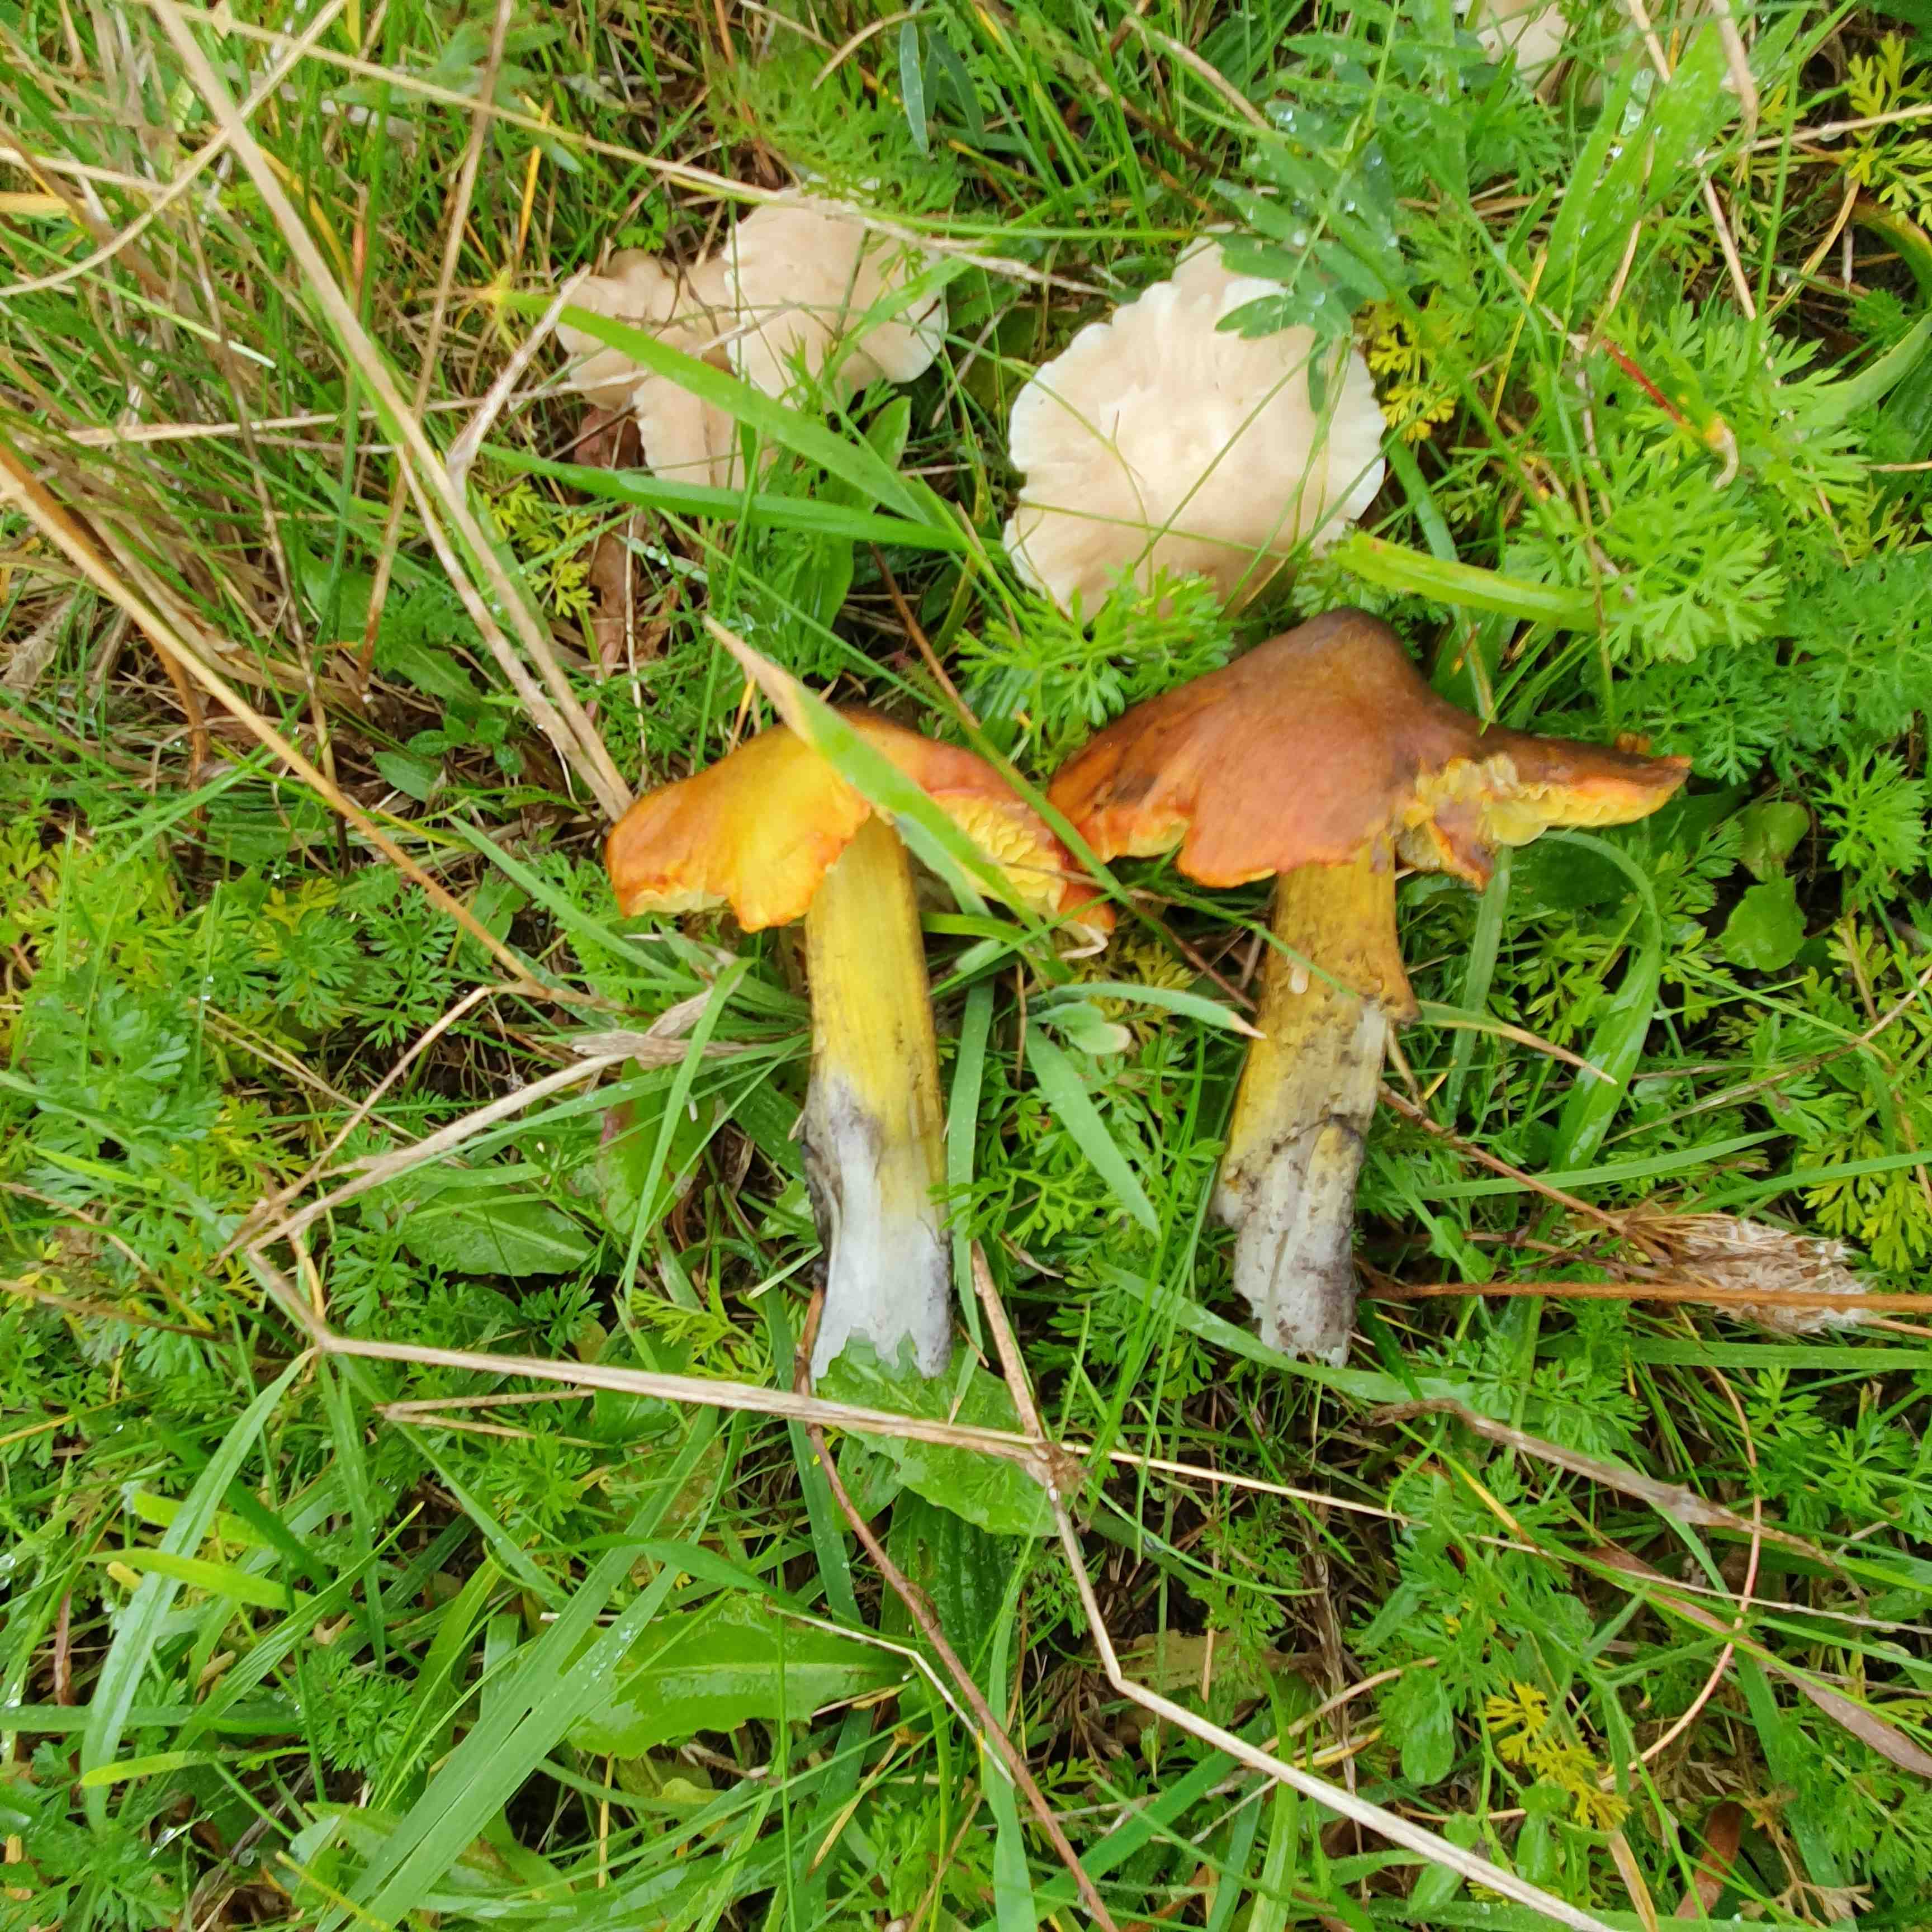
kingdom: Fungi
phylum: Basidiomycota
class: Agaricomycetes
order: Agaricales
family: Hygrophoraceae
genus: Hygrocybe
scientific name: Hygrocybe conica
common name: kegle-vokshat
